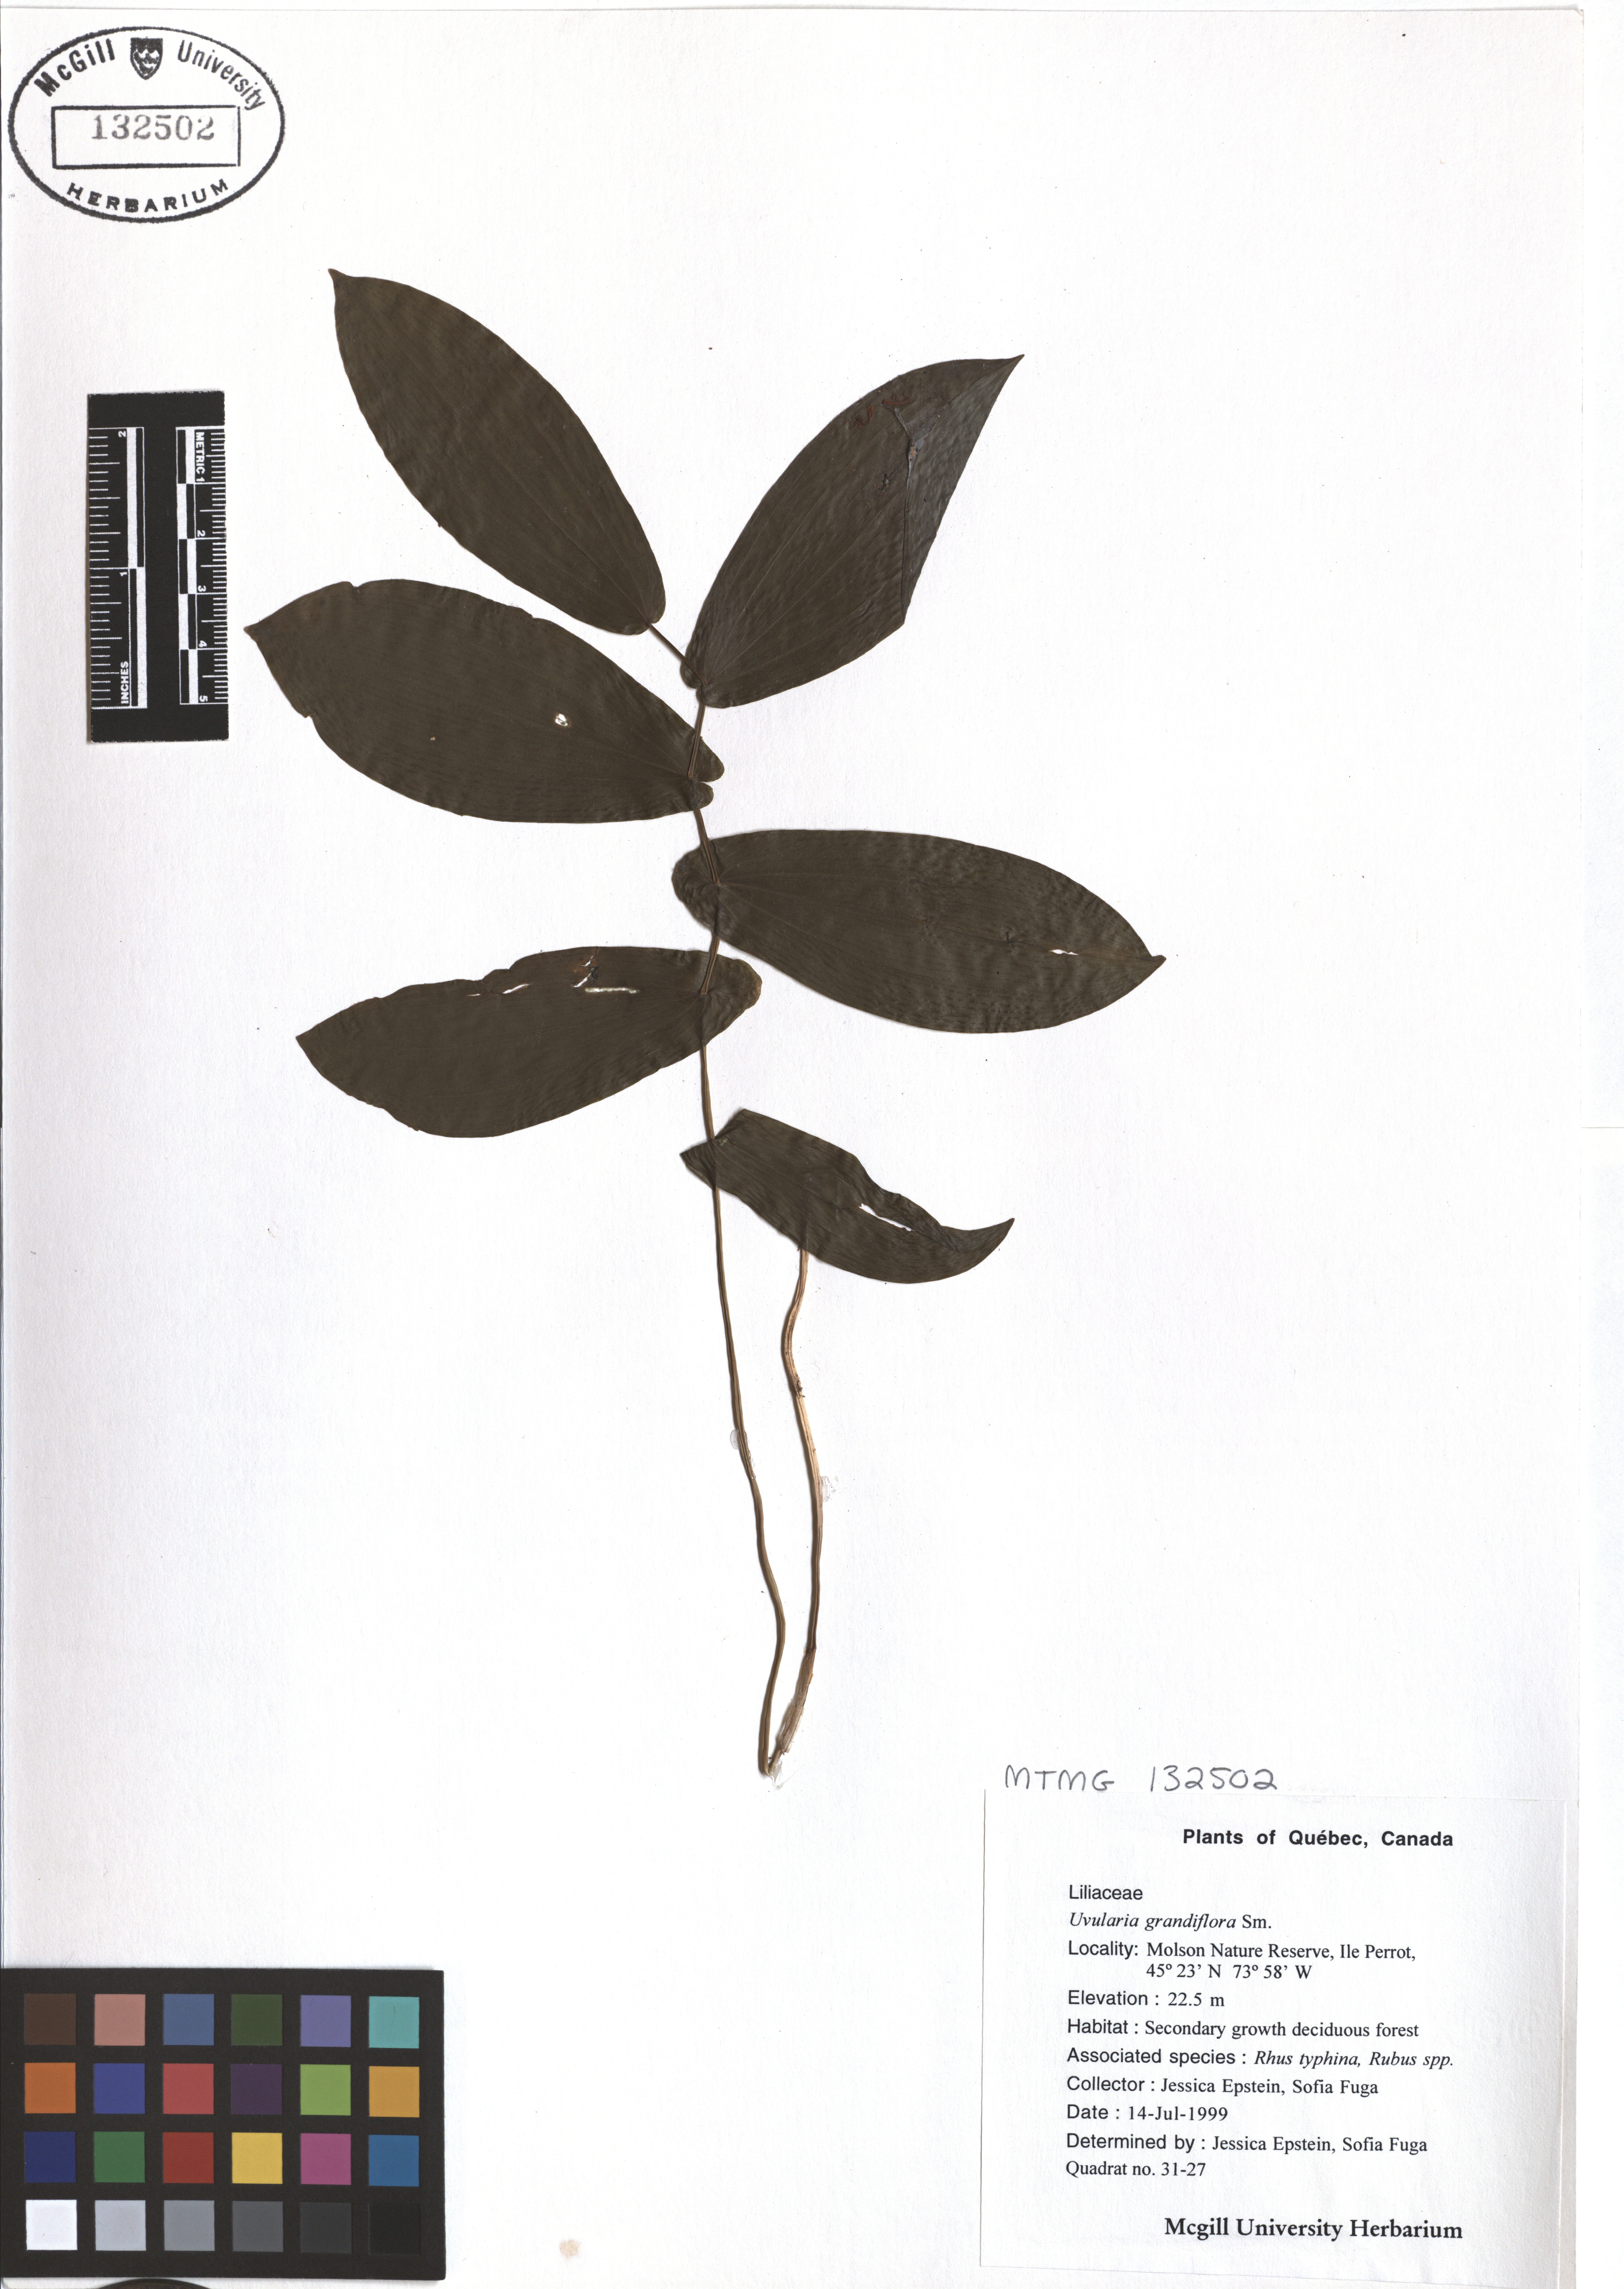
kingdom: Plantae
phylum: Tracheophyta
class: Liliopsida
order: Liliales
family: Colchicaceae
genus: Uvularia
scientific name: Uvularia grandiflora
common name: Bellwort
